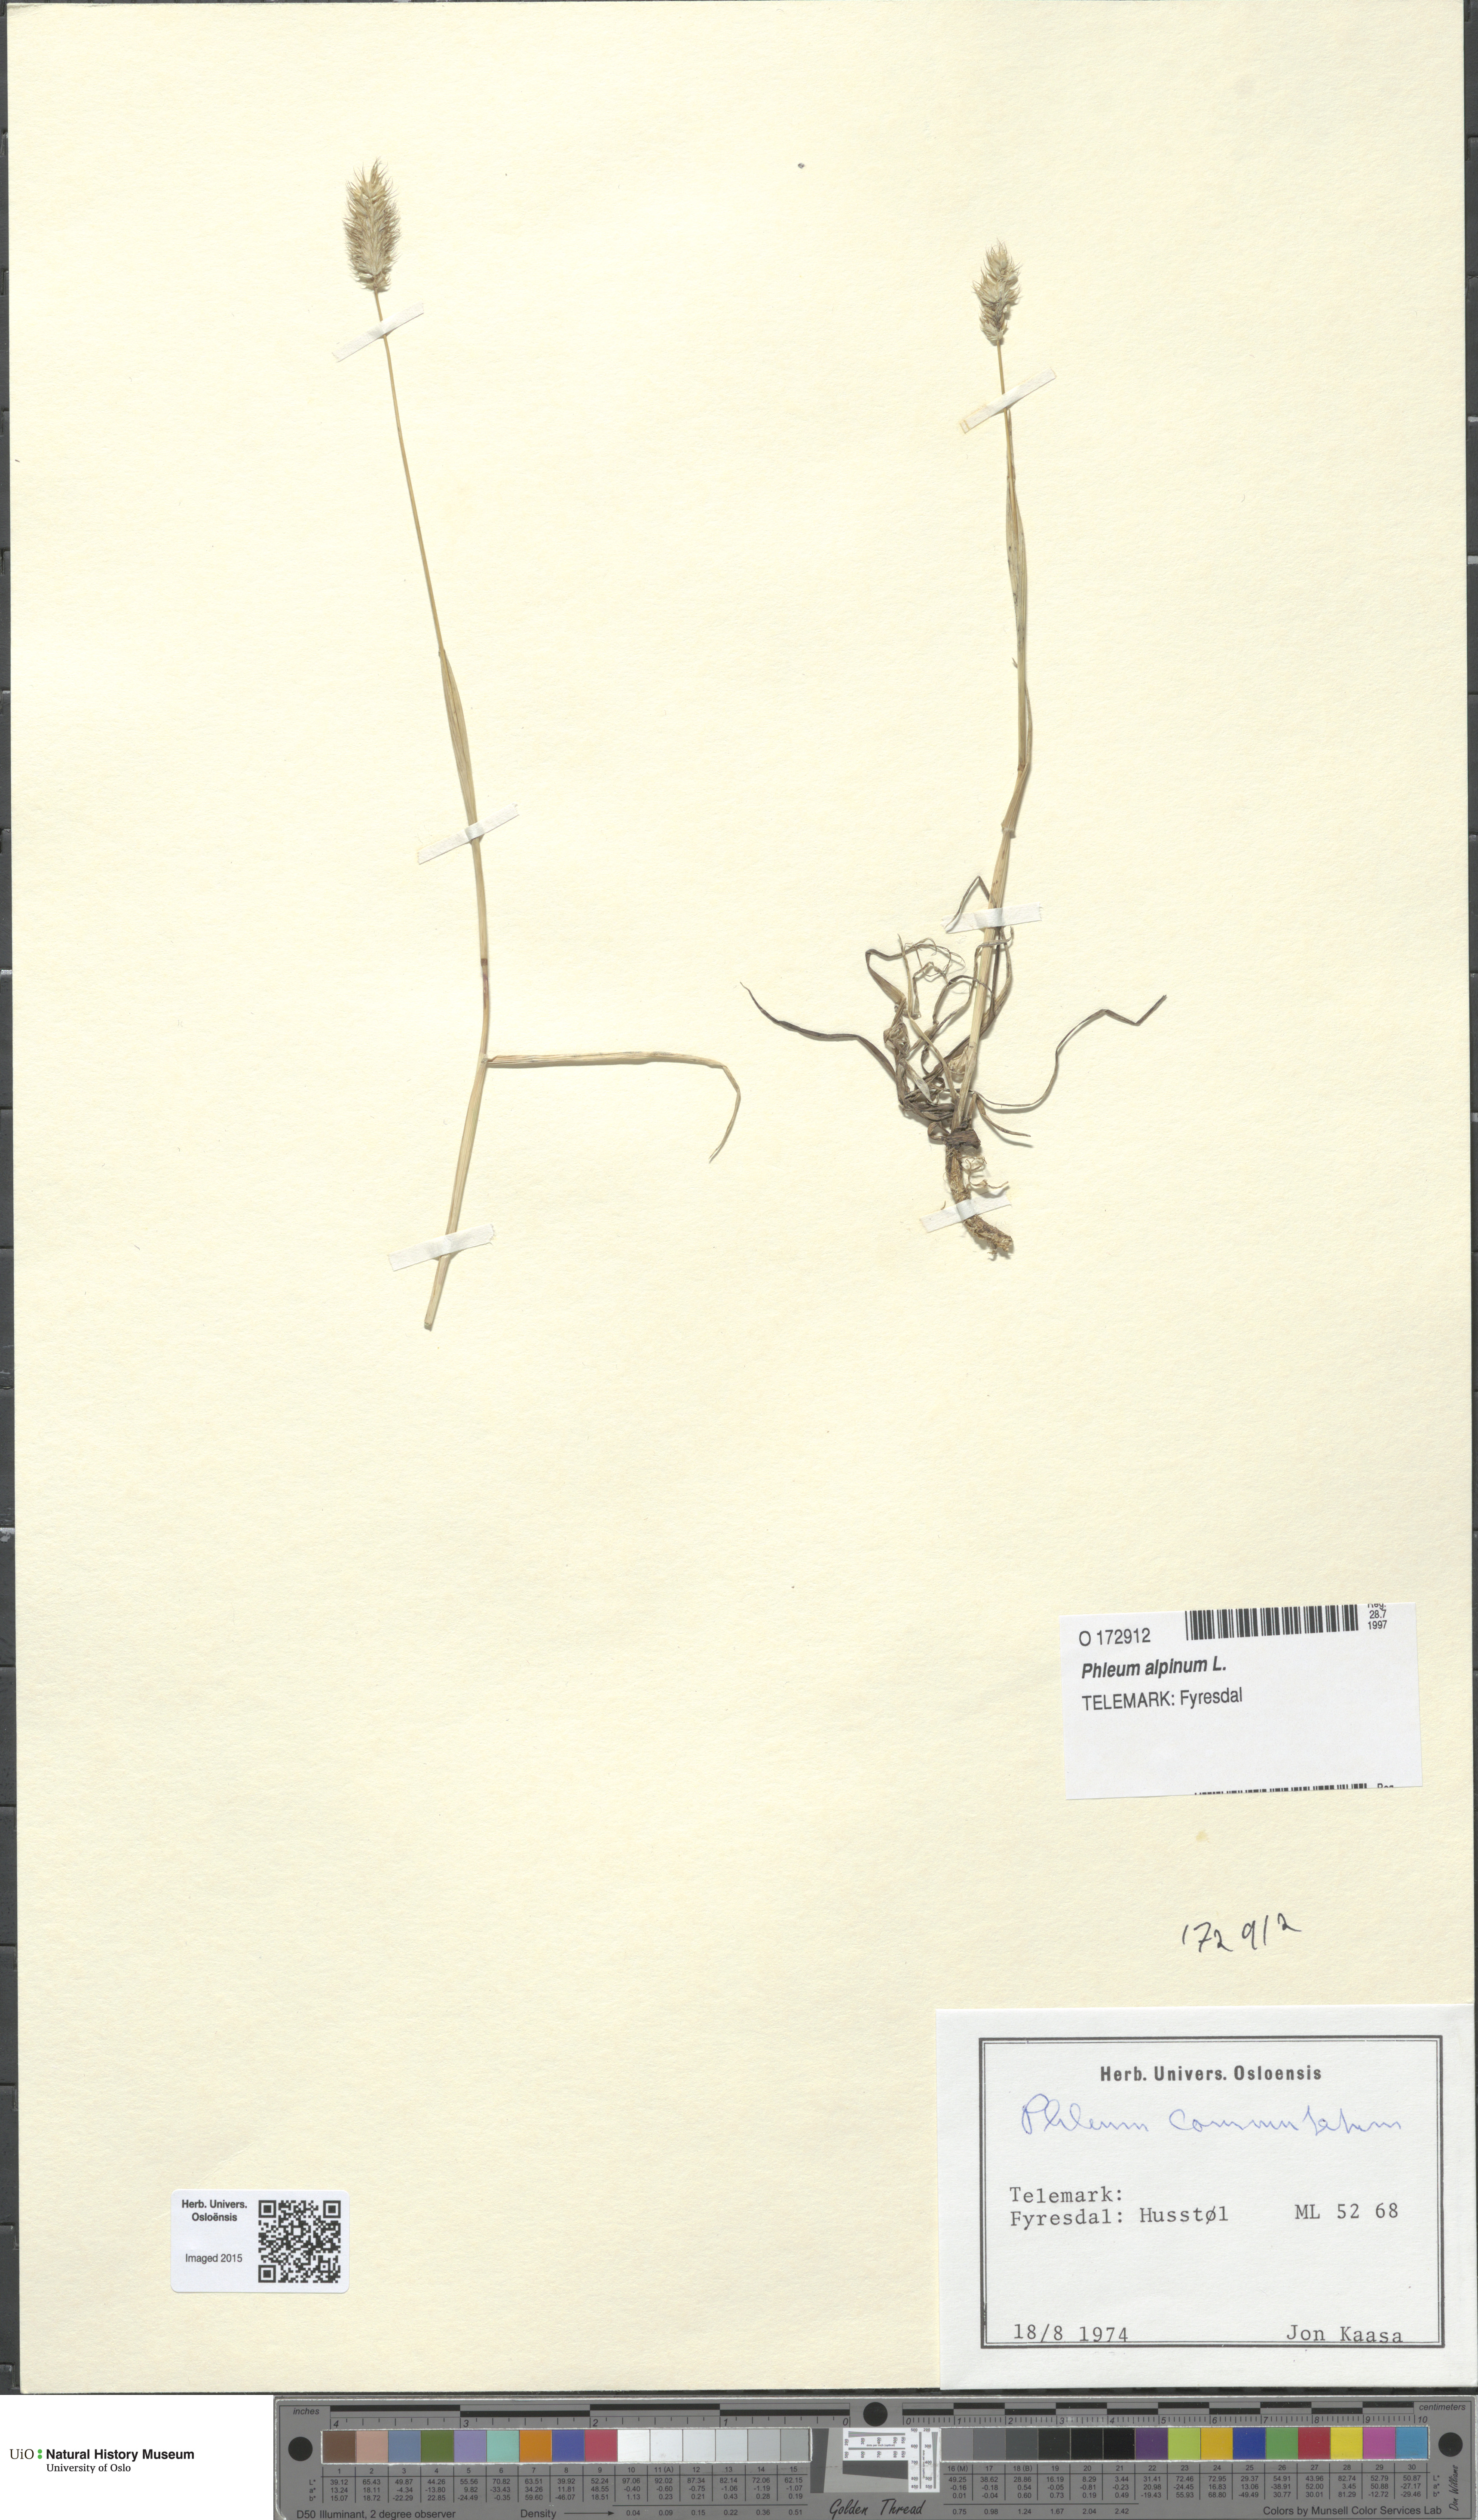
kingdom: Plantae
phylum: Tracheophyta
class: Liliopsida
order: Poales
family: Poaceae
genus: Phleum
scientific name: Phleum alpinum
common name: Alpine cat's-tail
